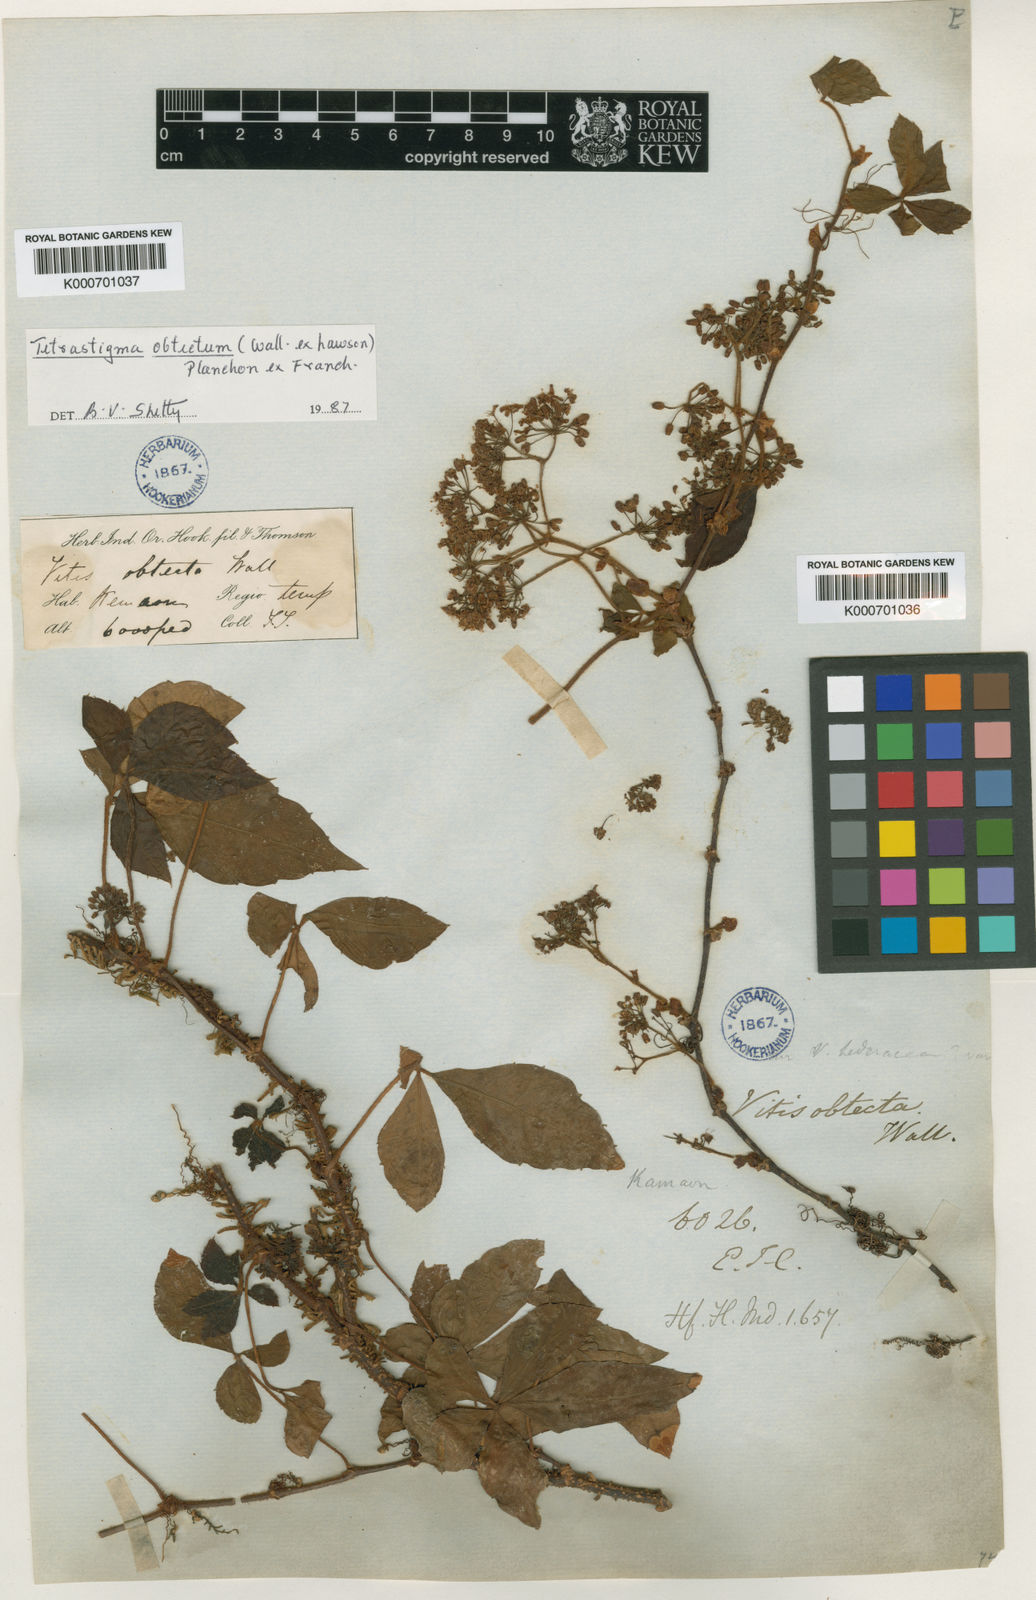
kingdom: Plantae
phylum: Tracheophyta
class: Magnoliopsida
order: Vitales
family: Vitaceae
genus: Tetrastigma
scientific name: Tetrastigma obtectum
